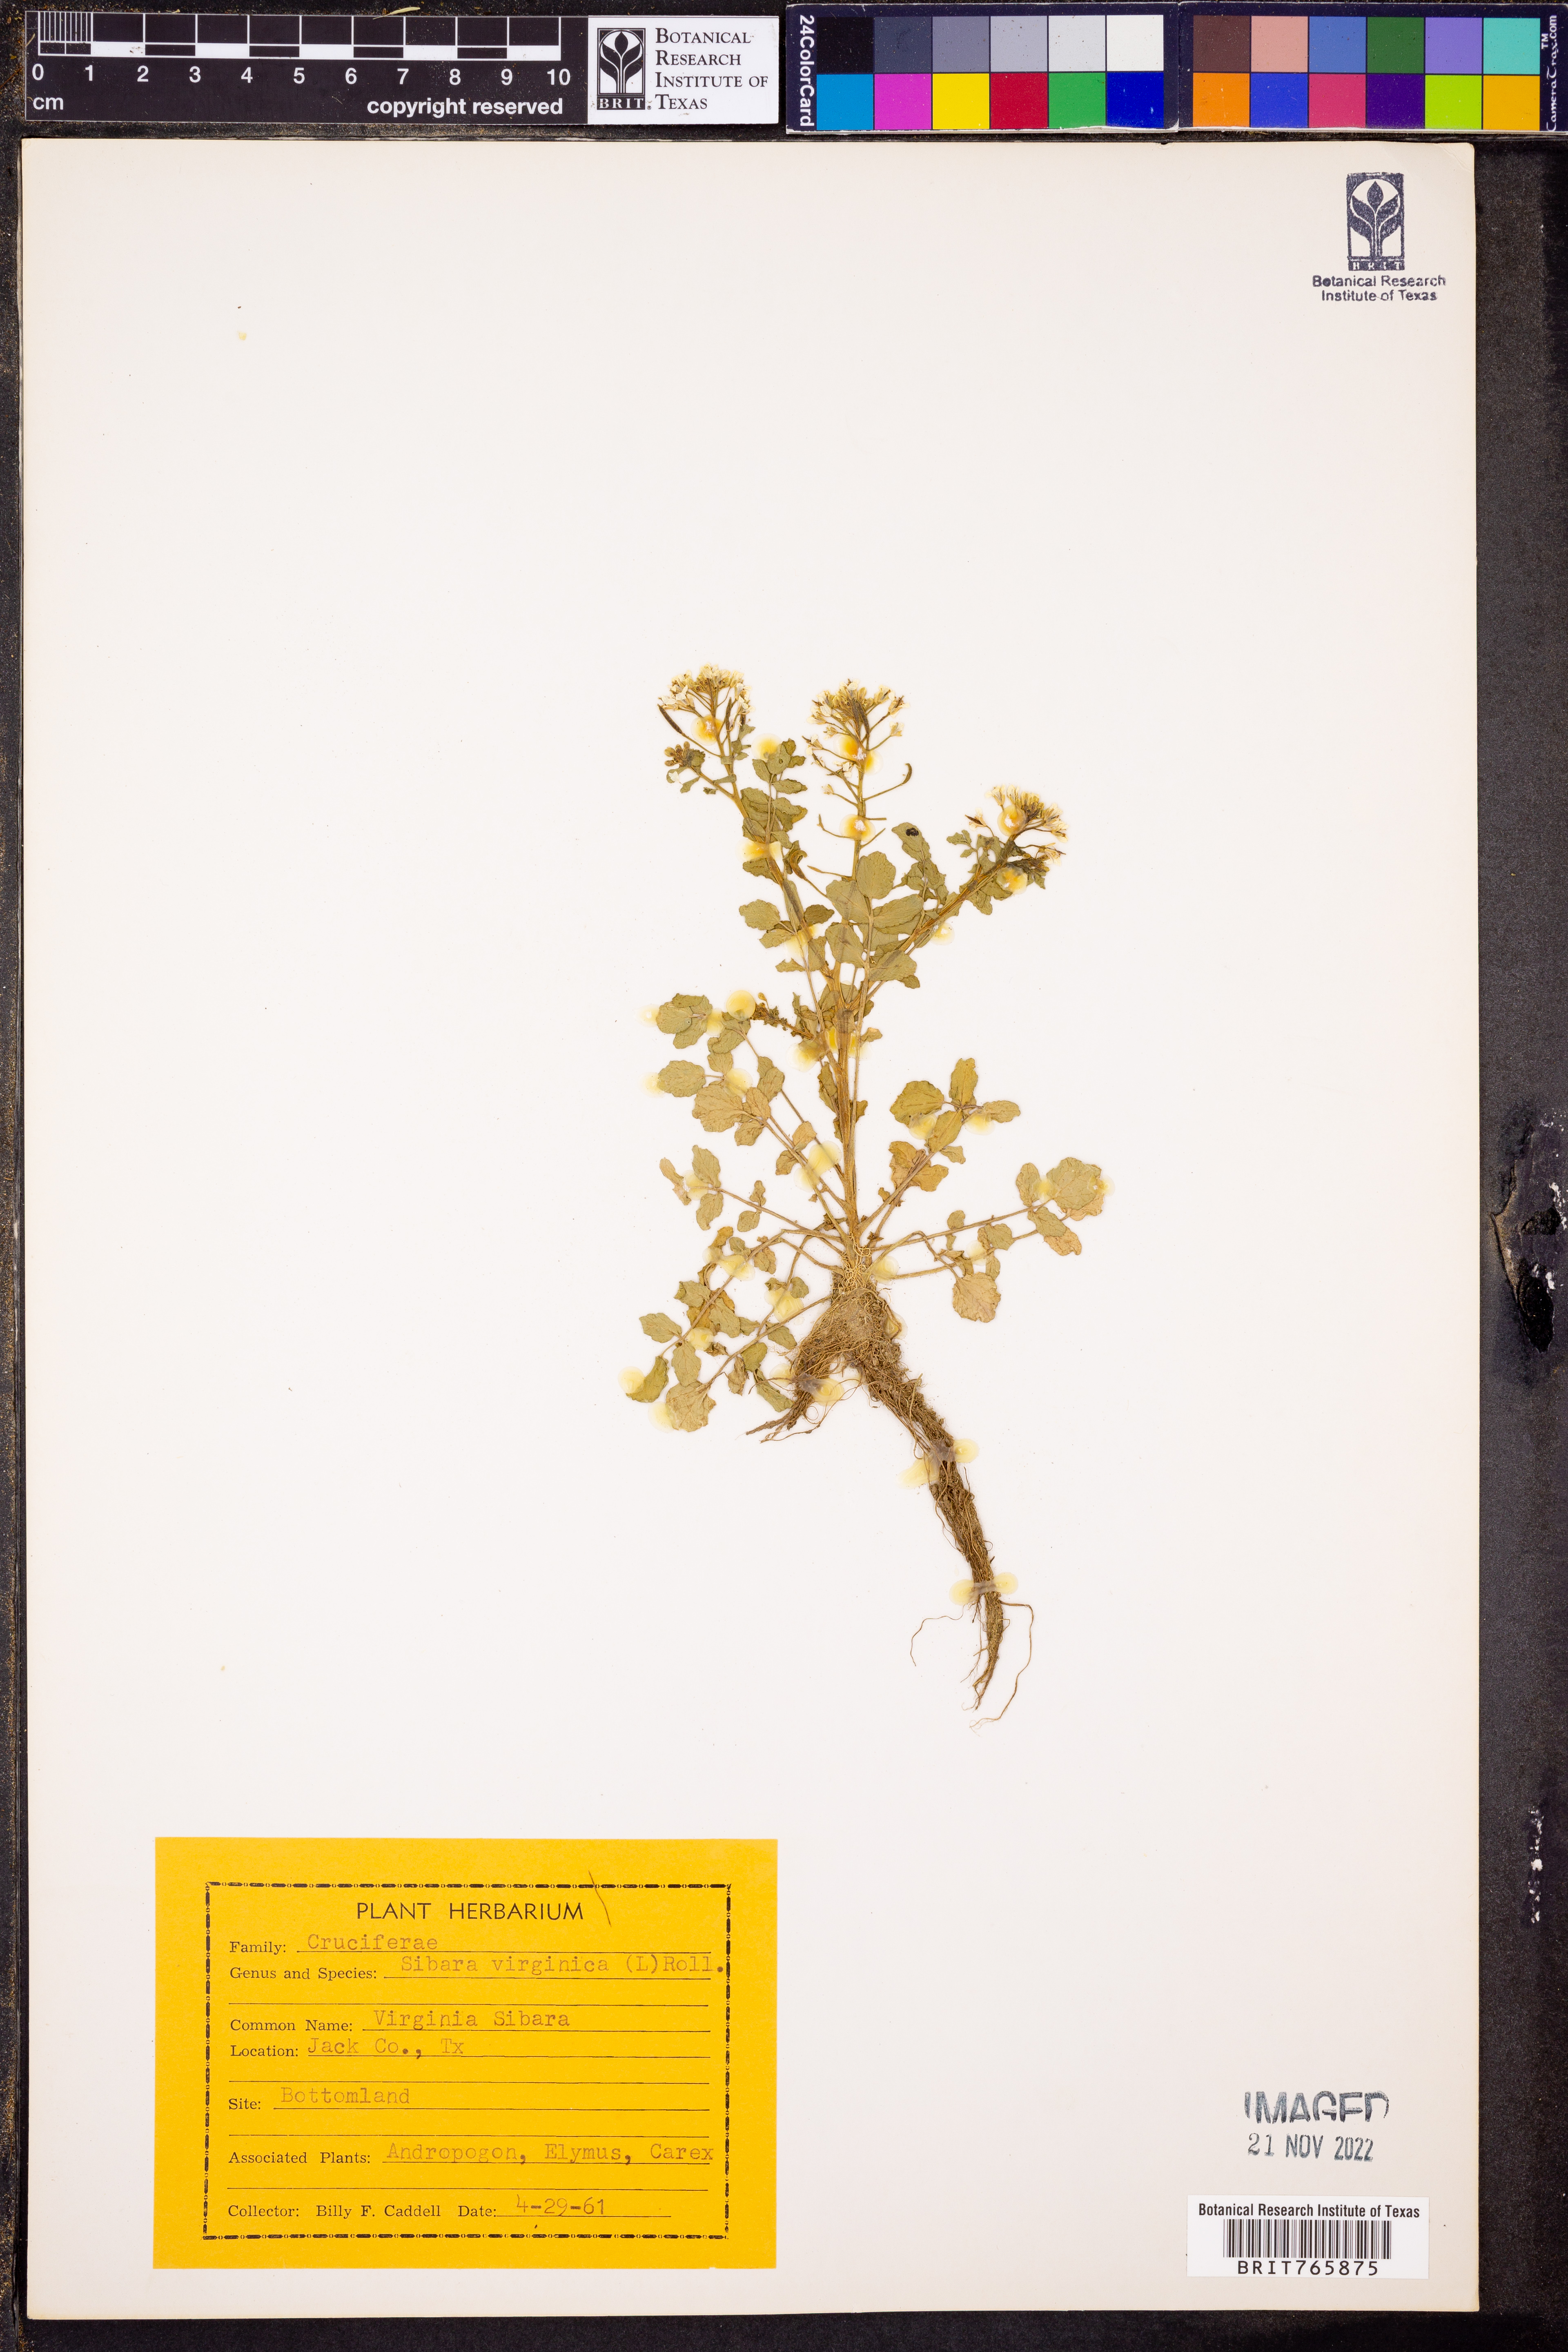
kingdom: Plantae
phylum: Tracheophyta
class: Magnoliopsida
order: Brassicales
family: Brassicaceae
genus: Planodes
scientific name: Planodes virginicum
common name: Virginia cress
